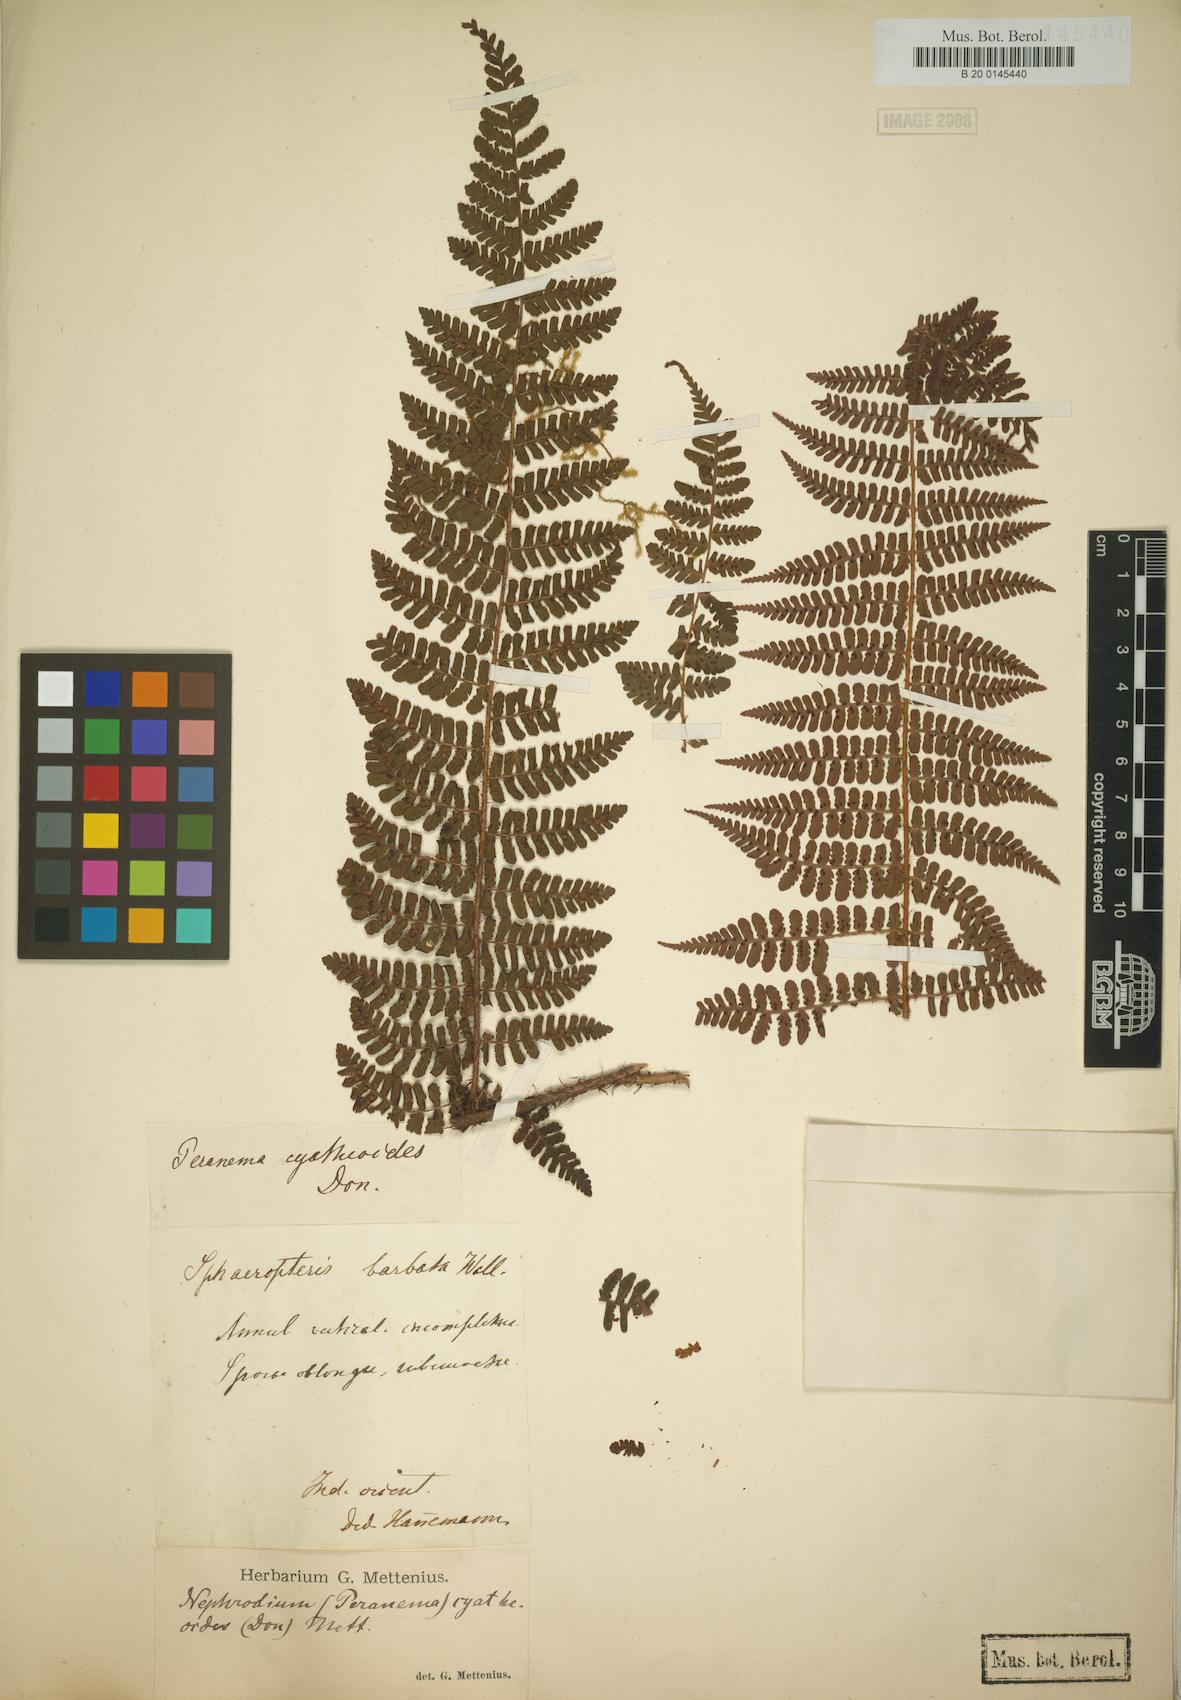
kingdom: Plantae
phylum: Tracheophyta
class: Polypodiopsida
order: Polypodiales
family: Dryopteridaceae
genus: Dryopteris
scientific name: Dryopteris peranema
